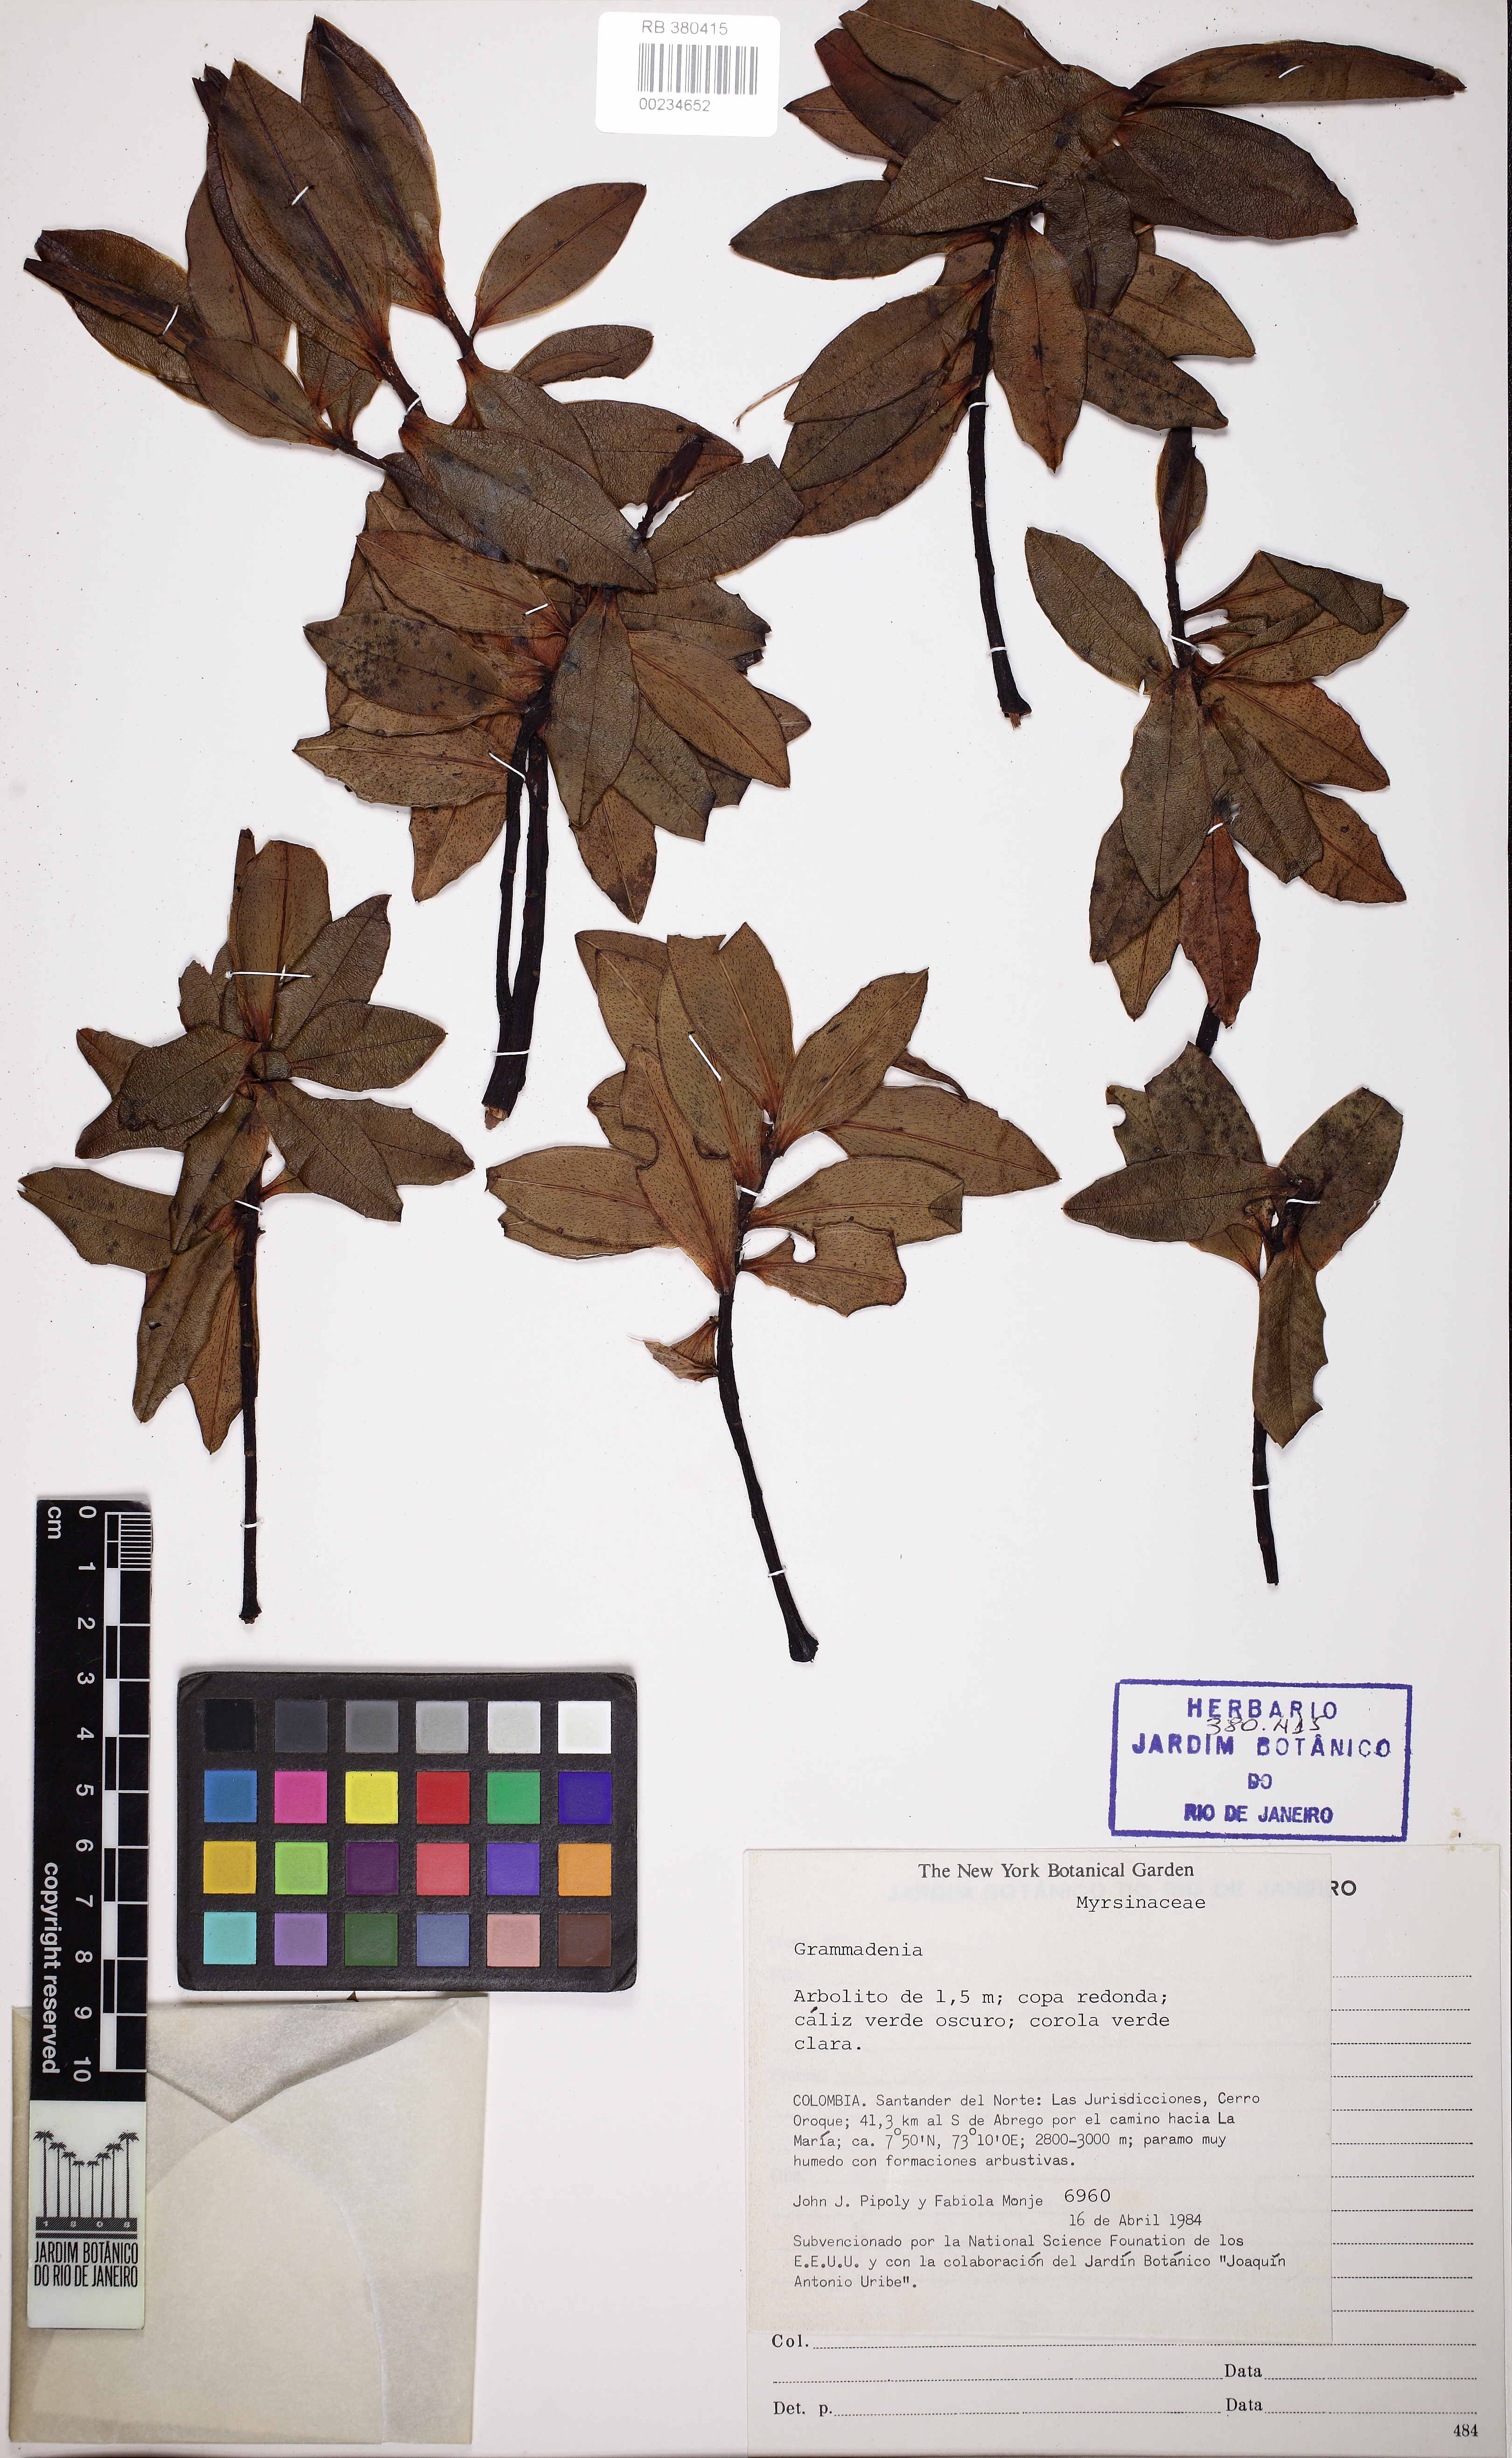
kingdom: Plantae
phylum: Tracheophyta
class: Magnoliopsida
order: Ericales
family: Primulaceae
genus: Cybianthus
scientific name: Cybianthus
